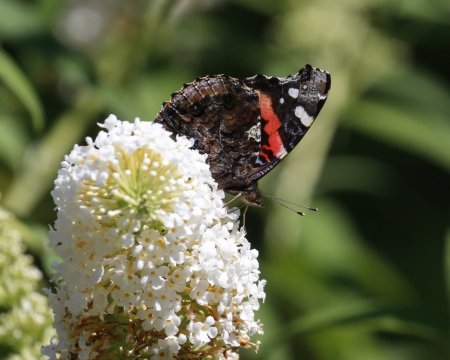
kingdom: Animalia
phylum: Arthropoda
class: Insecta
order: Lepidoptera
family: Nymphalidae
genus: Vanessa
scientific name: Vanessa atalanta
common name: Red Admiral
